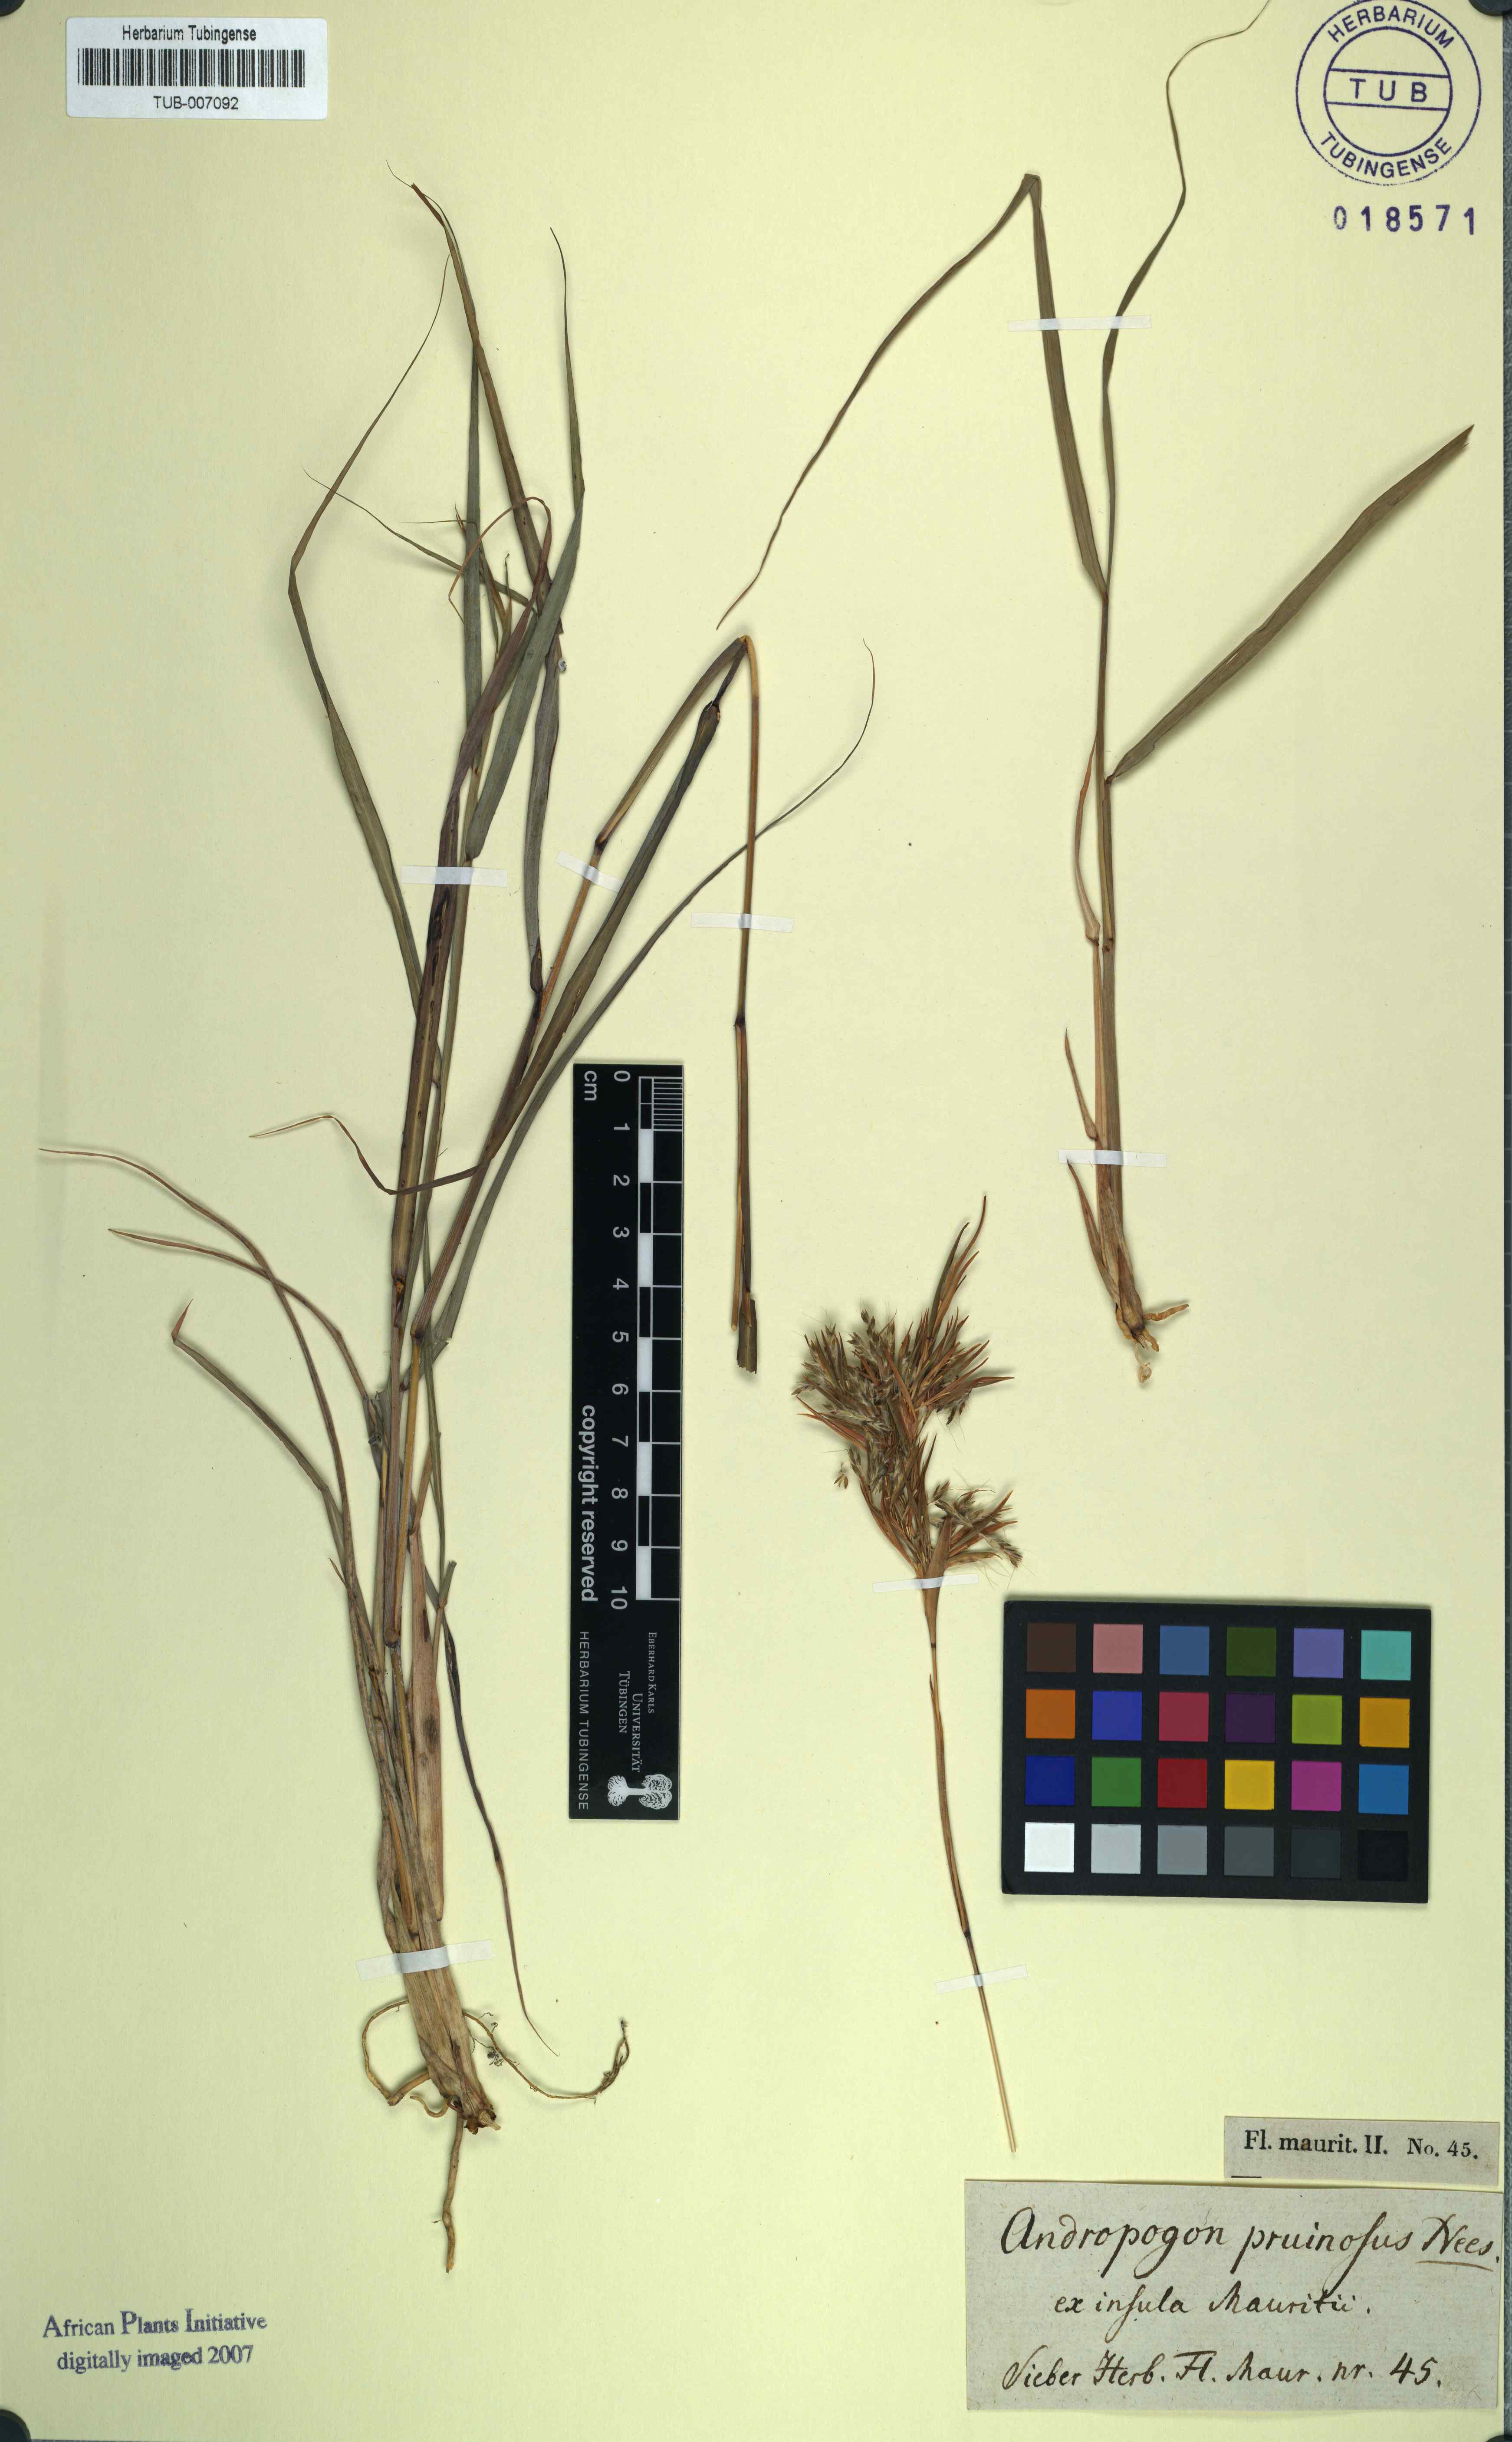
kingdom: Plantae
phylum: Tracheophyta
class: Liliopsida
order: Poales
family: Poaceae
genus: Cymbopogon
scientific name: Cymbopogon schoenanthus
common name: Geranium grass
